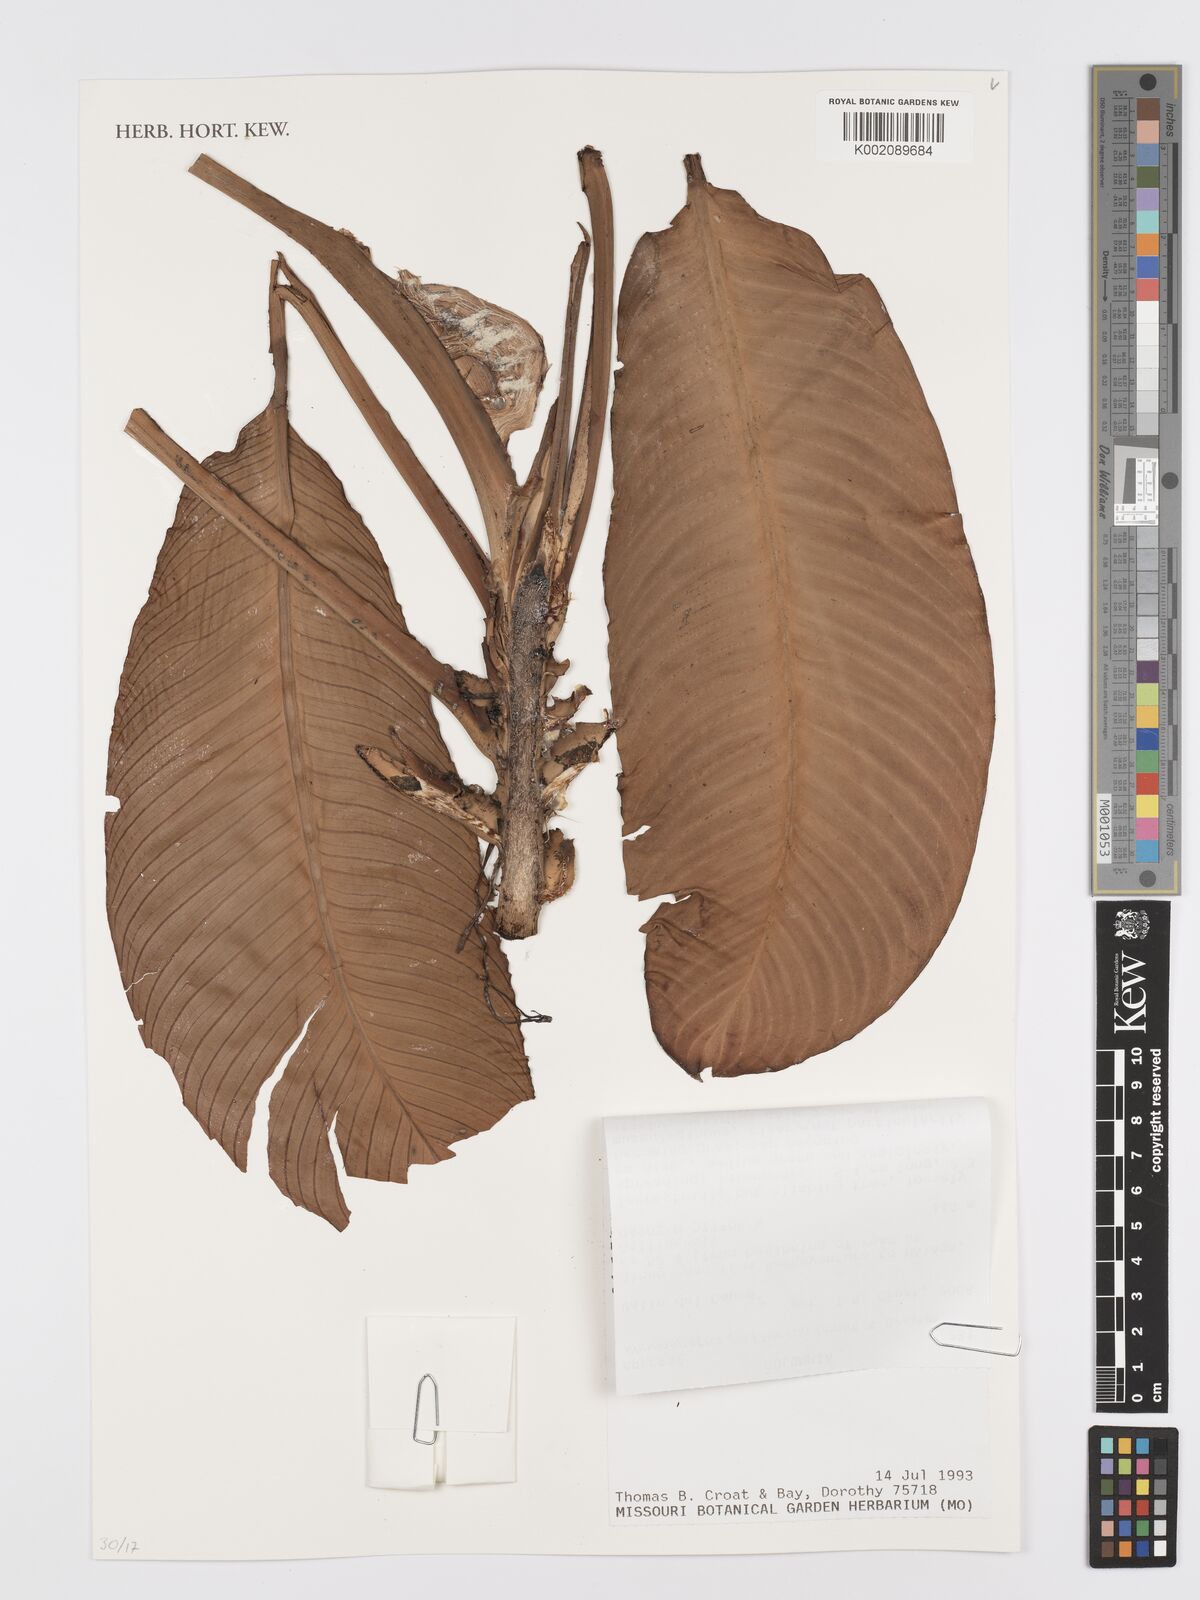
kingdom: Plantae
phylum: Tracheophyta
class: Liliopsida
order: Alismatales
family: Araceae
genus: Rhodospatha
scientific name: Rhodospatha pellucida
